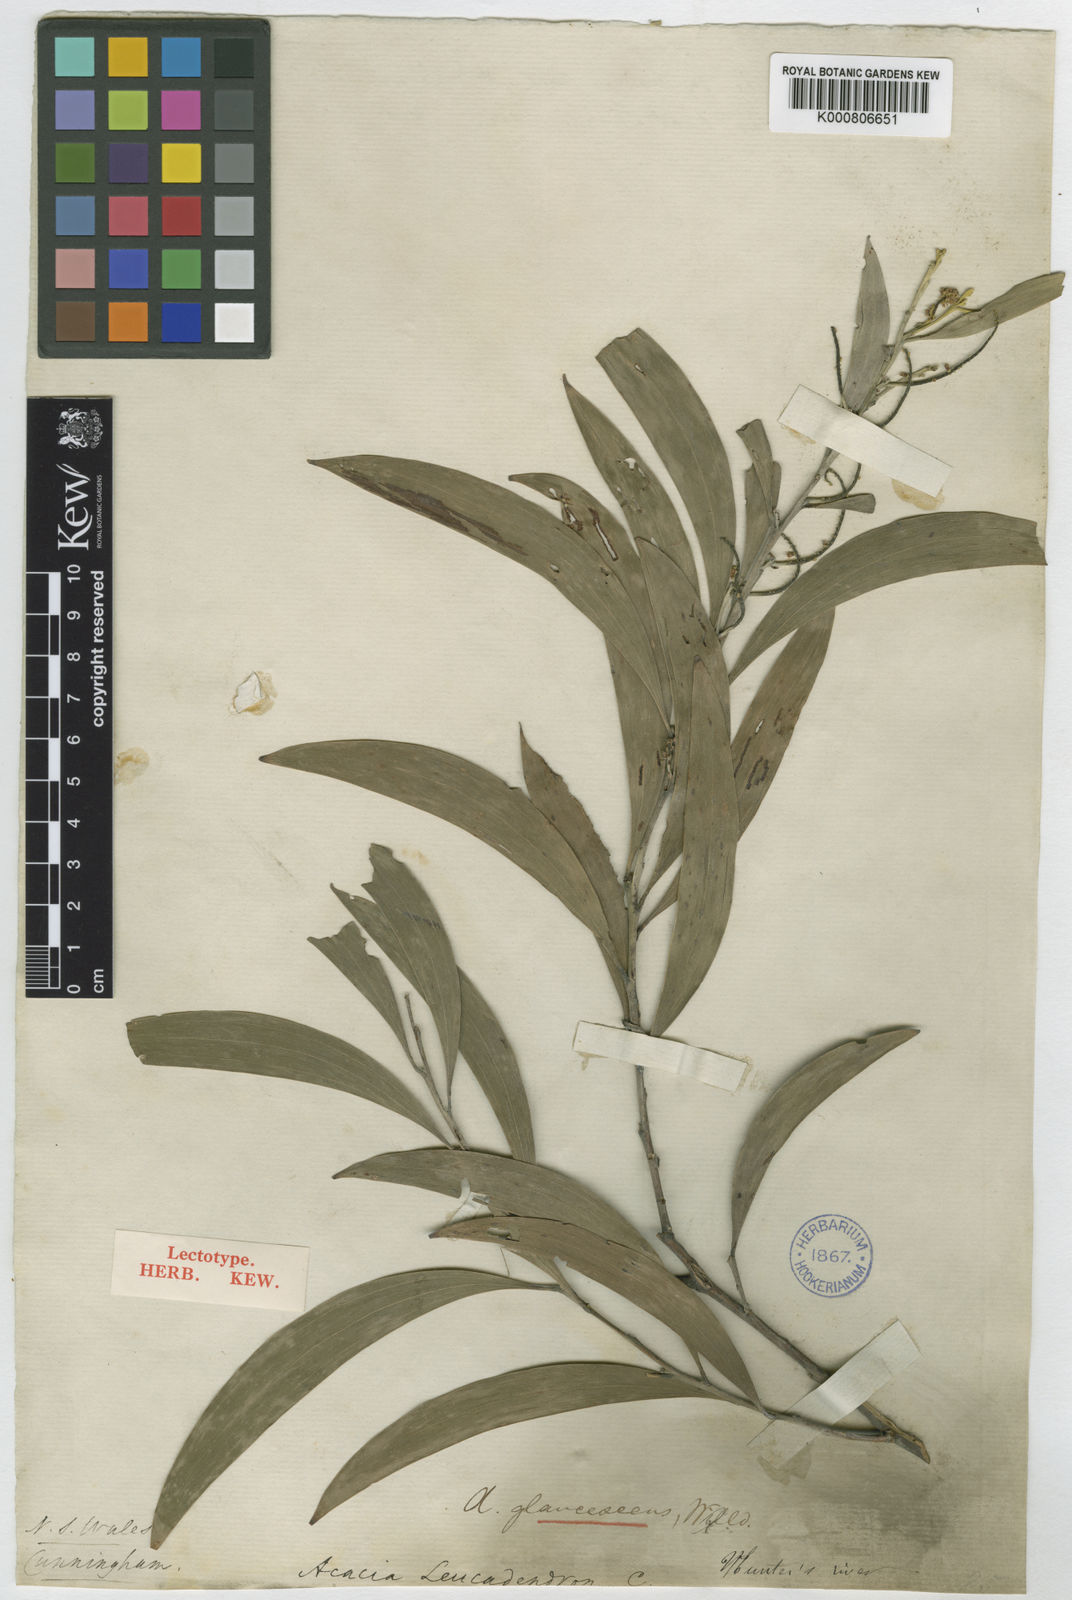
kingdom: Plantae
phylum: Tracheophyta
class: Magnoliopsida
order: Fabales
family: Fabaceae
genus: Acacia
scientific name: Acacia binervia
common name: Coast myall
